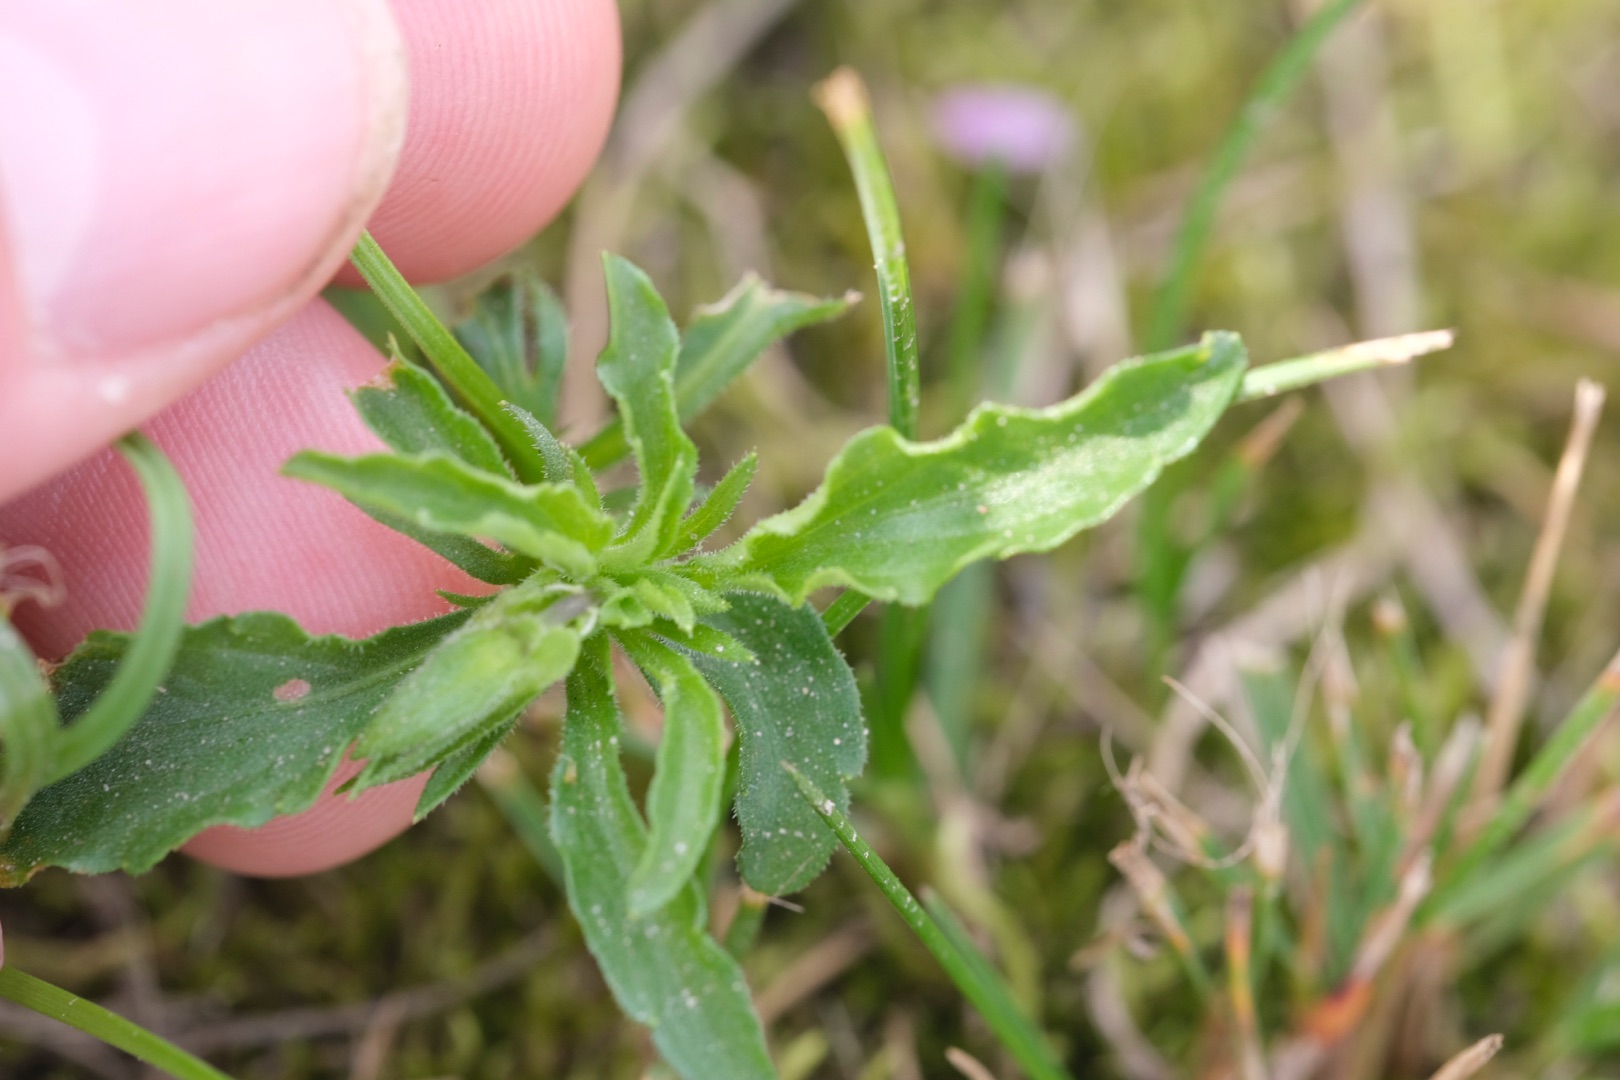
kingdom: Plantae
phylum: Tracheophyta
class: Magnoliopsida
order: Malpighiales
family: Violaceae
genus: Viola
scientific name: Viola arvensis
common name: Ager-stedmoderblomst
